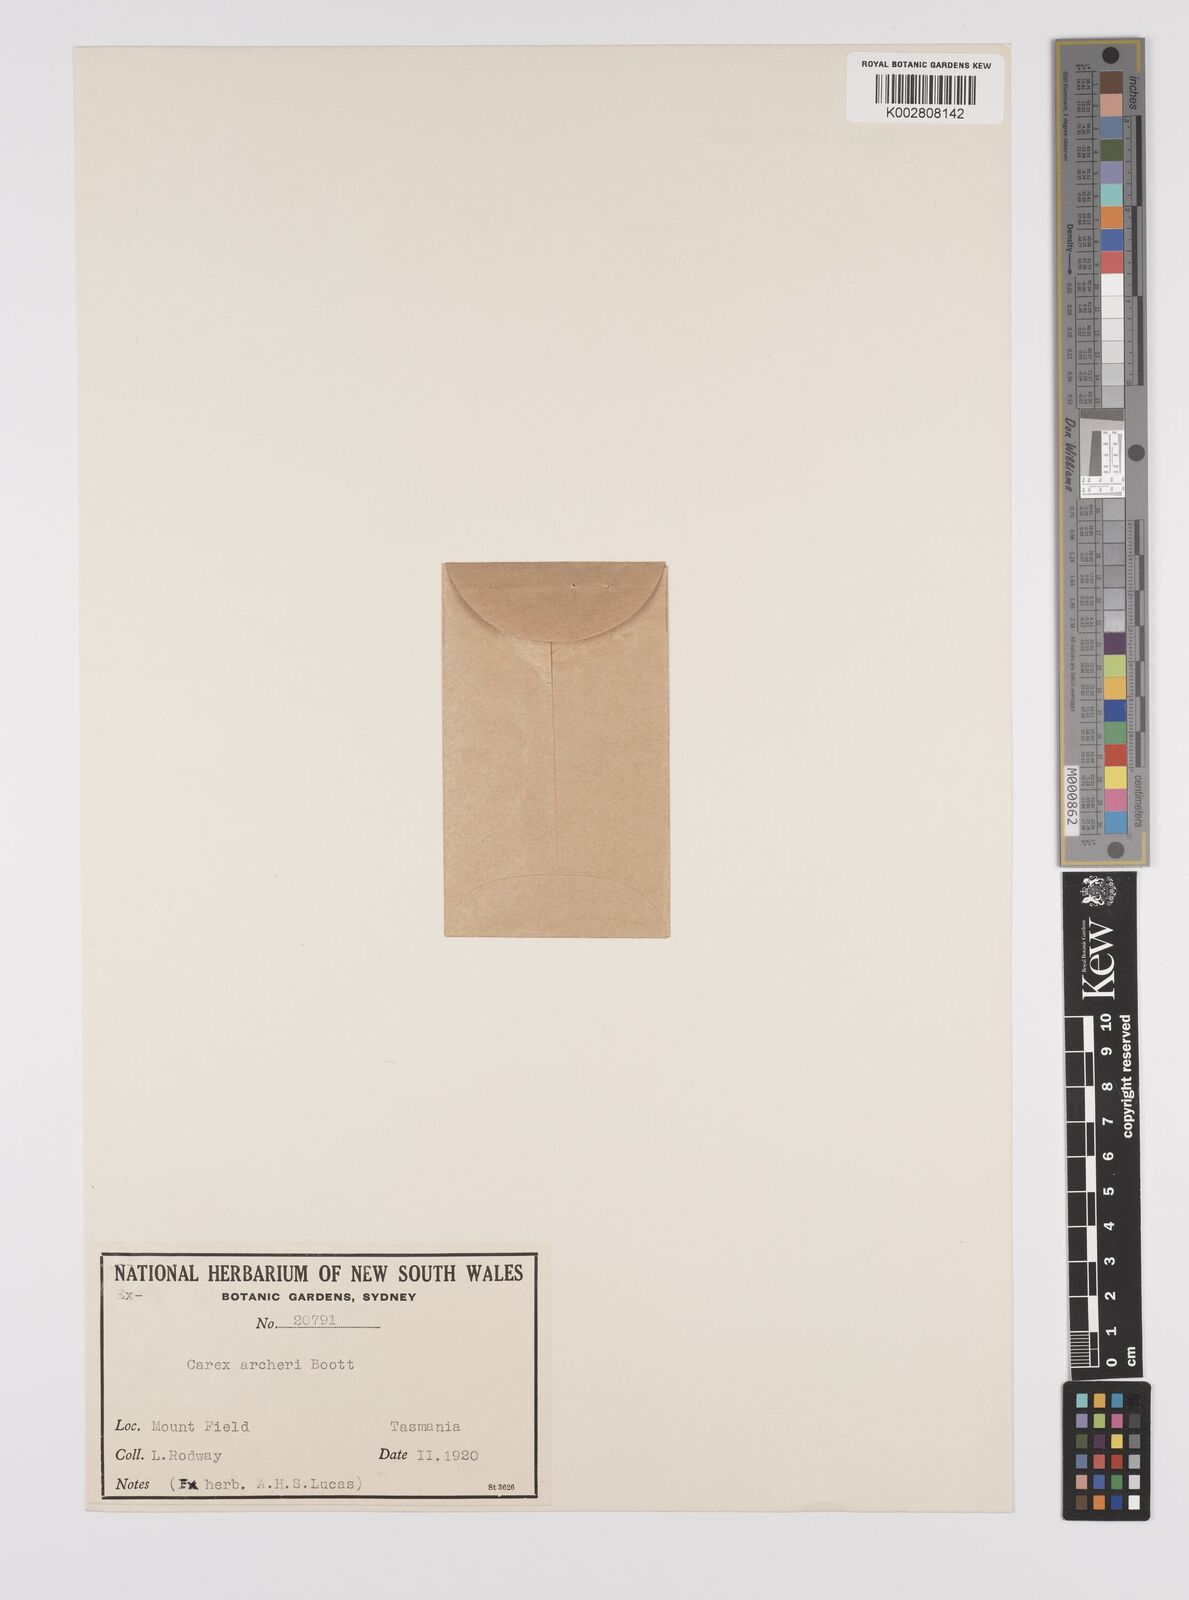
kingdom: Plantae
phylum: Tracheophyta
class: Liliopsida
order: Poales
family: Cyperaceae
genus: Carex
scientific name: Carex acicularis
